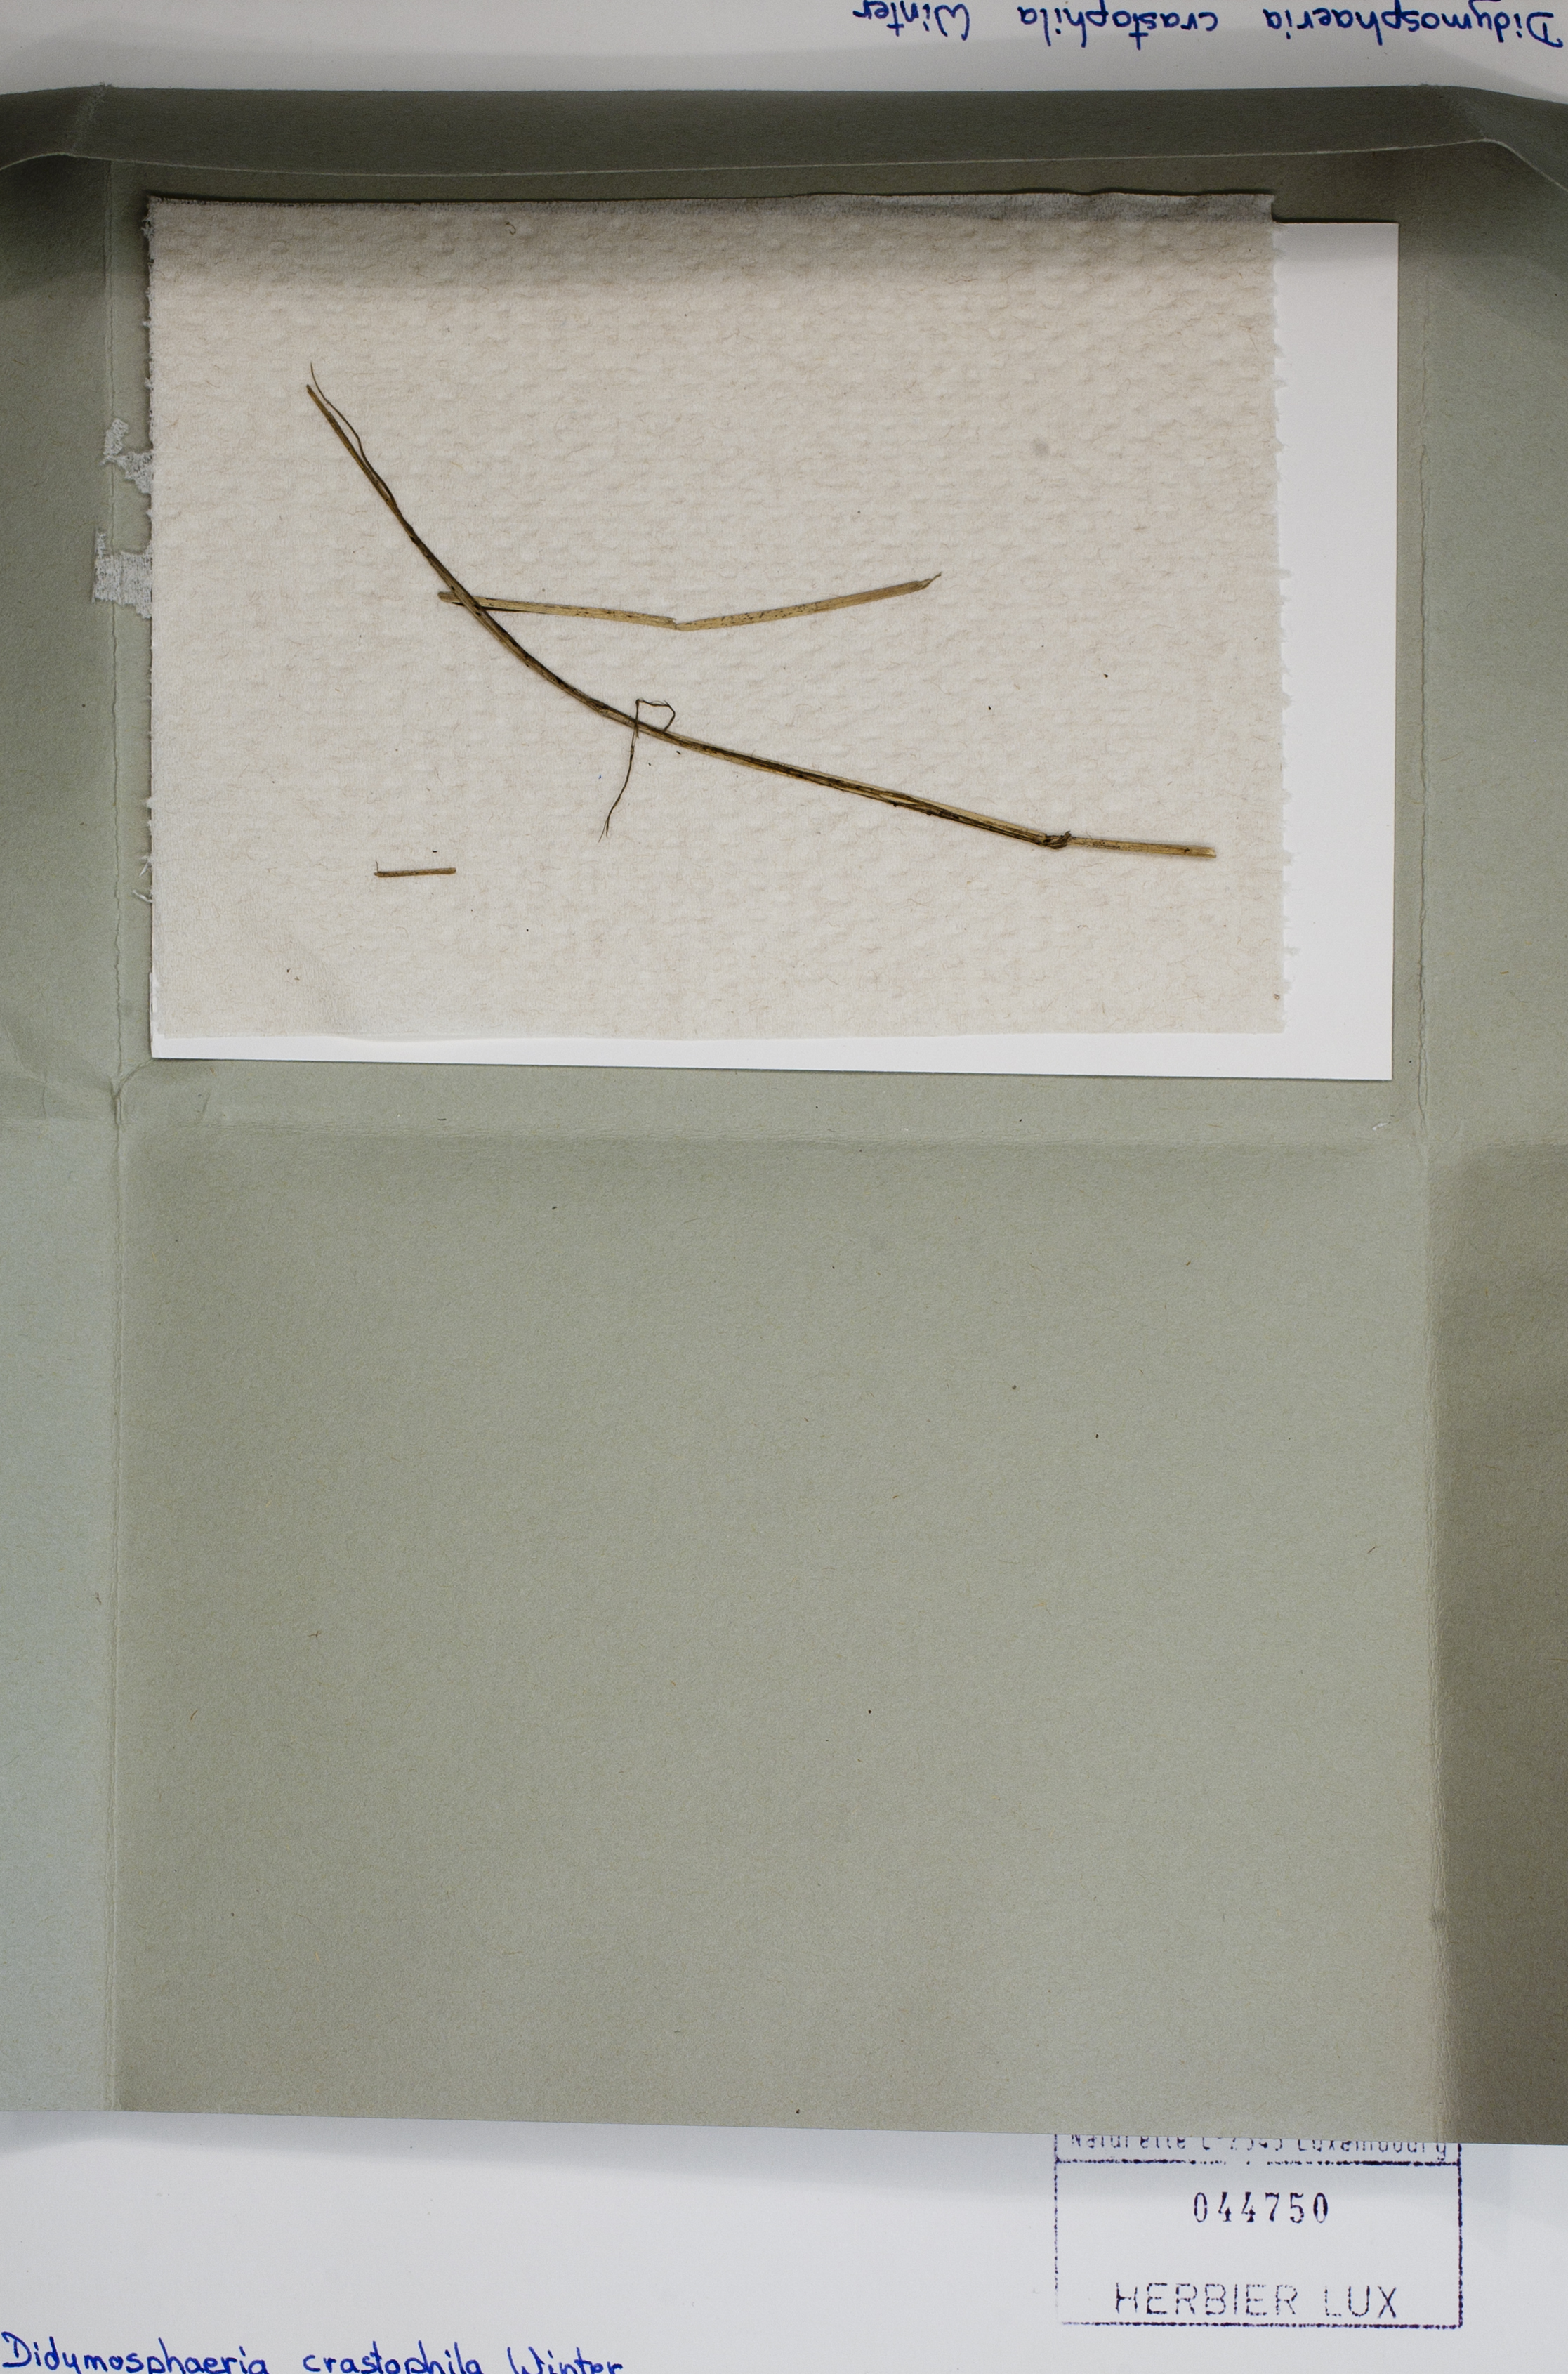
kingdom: Fungi
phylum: Ascomycota
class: Dothideomycetes
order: Pleosporales
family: Didymosphaeriaceae
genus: Didymosphaeria
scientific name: Didymosphaeria crastophila
